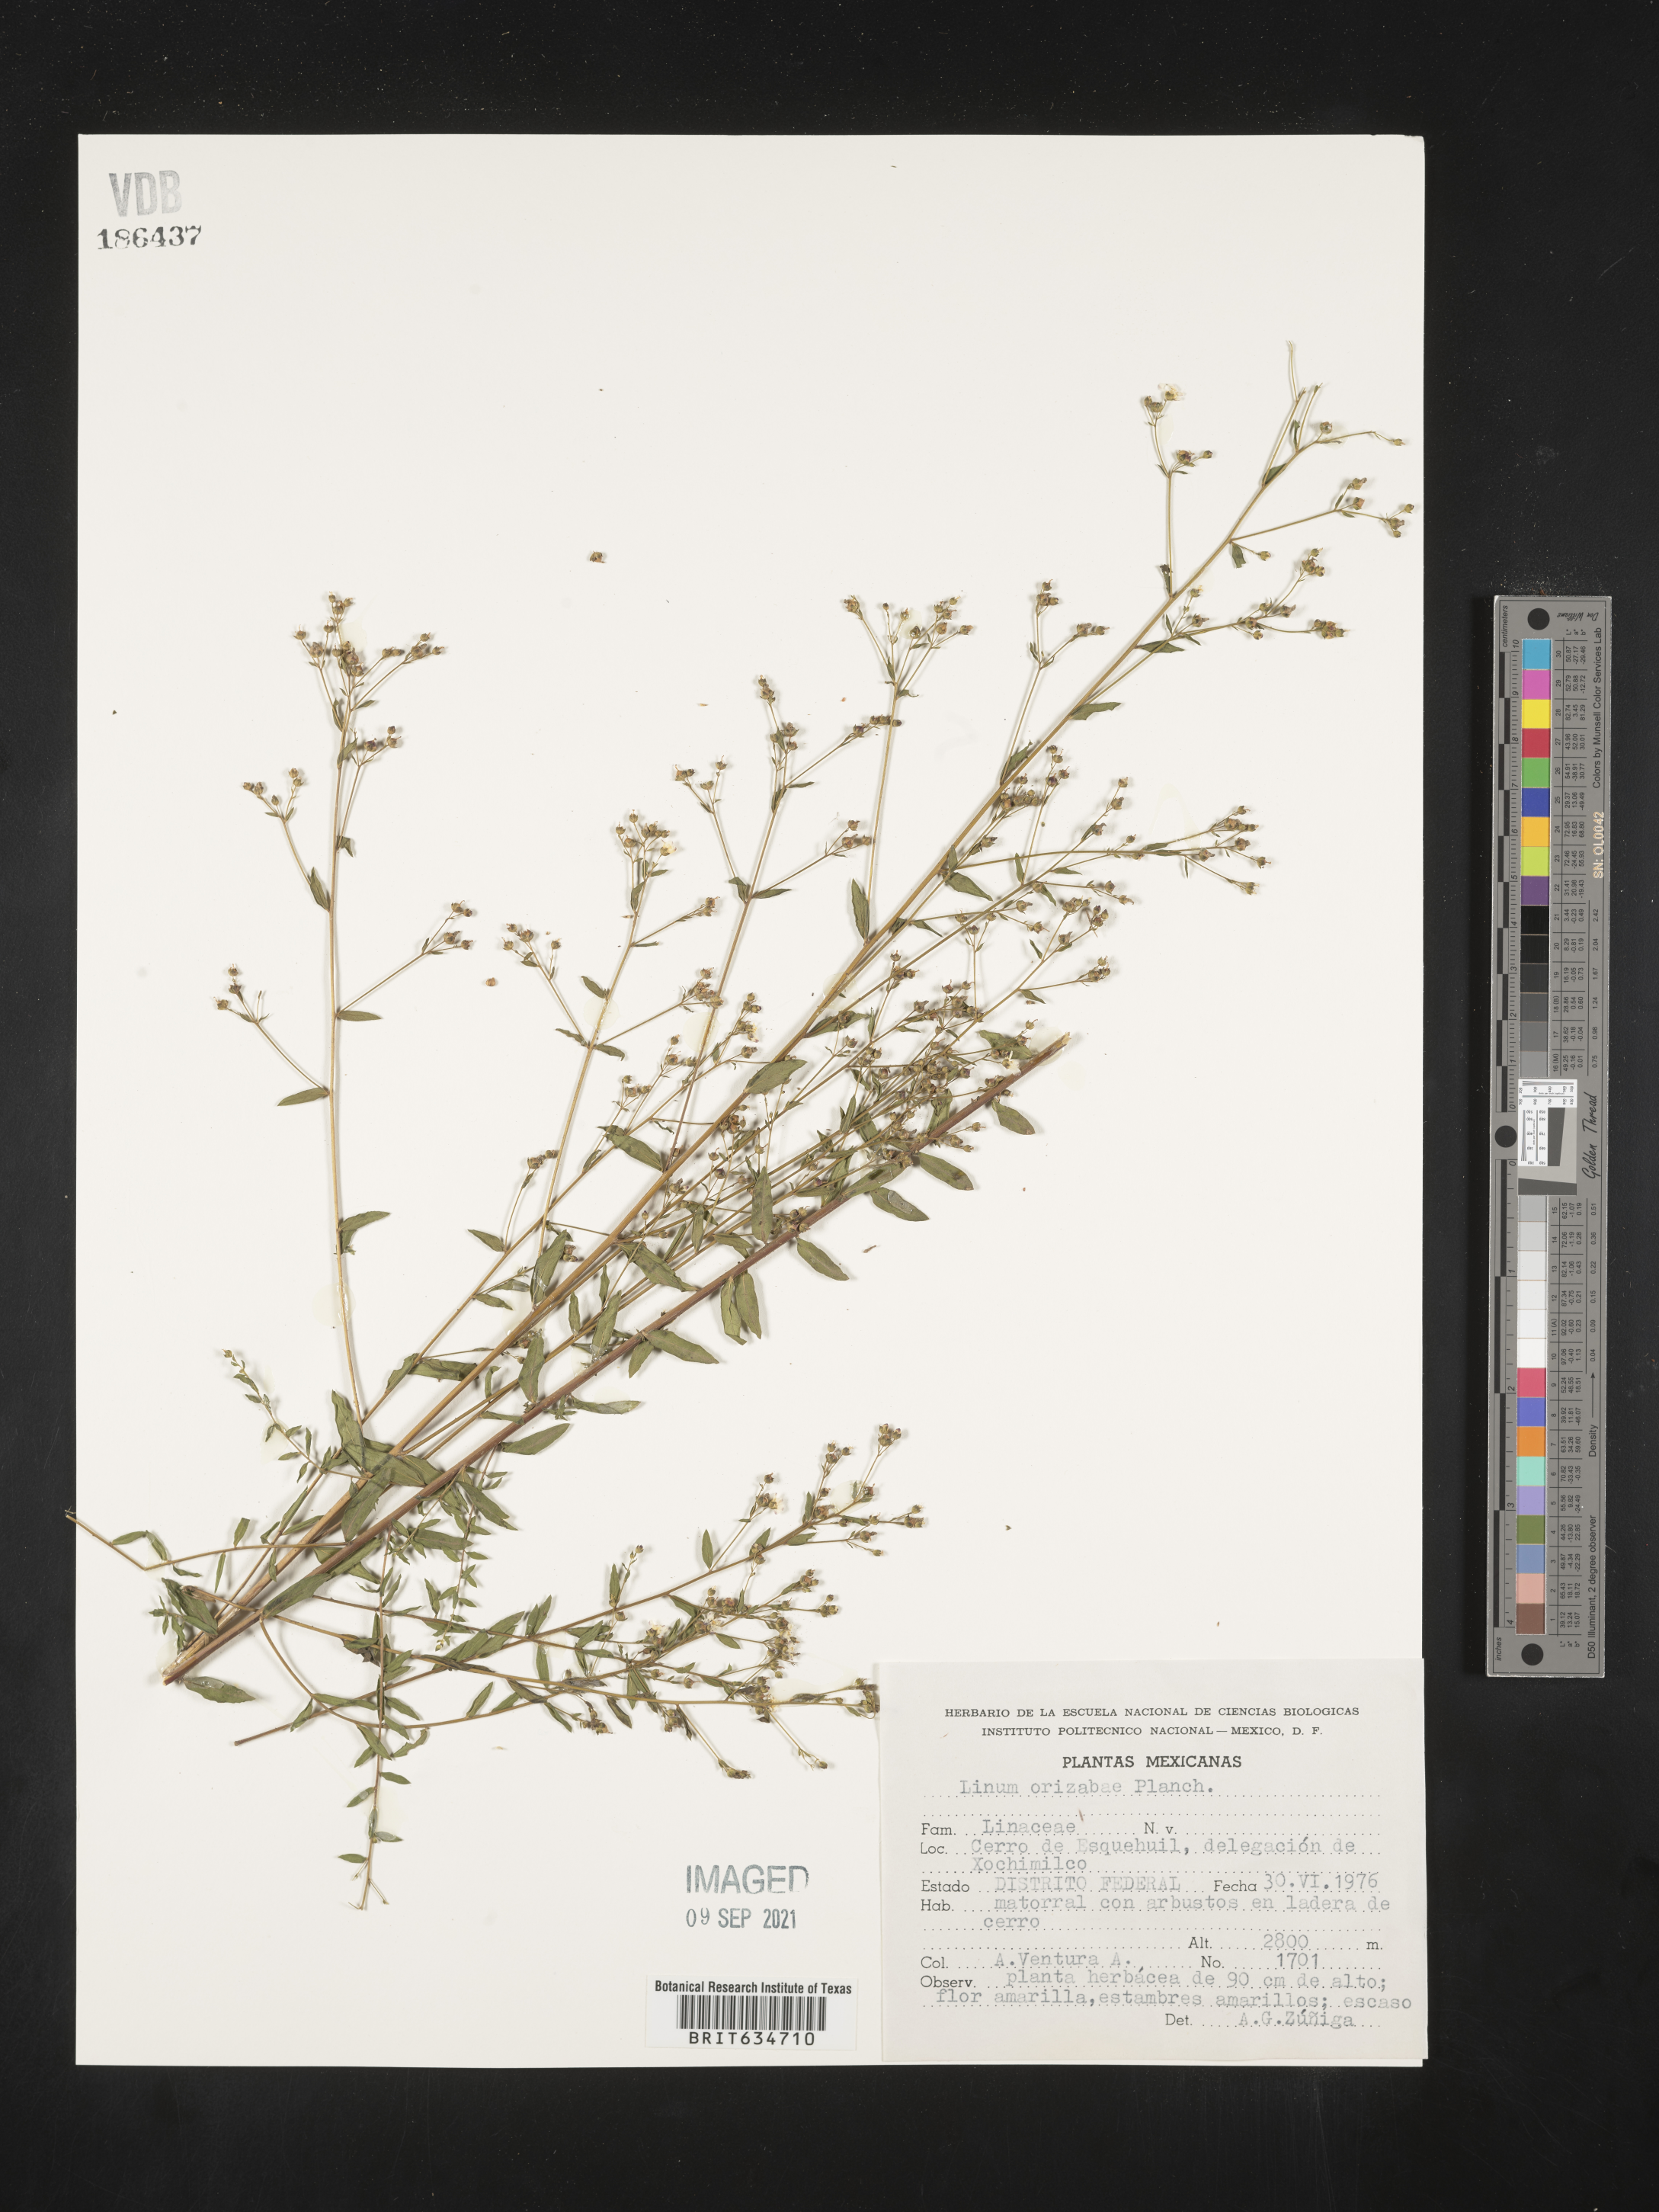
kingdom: Plantae
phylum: Tracheophyta
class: Magnoliopsida
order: Malpighiales
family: Linaceae
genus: Linum
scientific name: Linum
